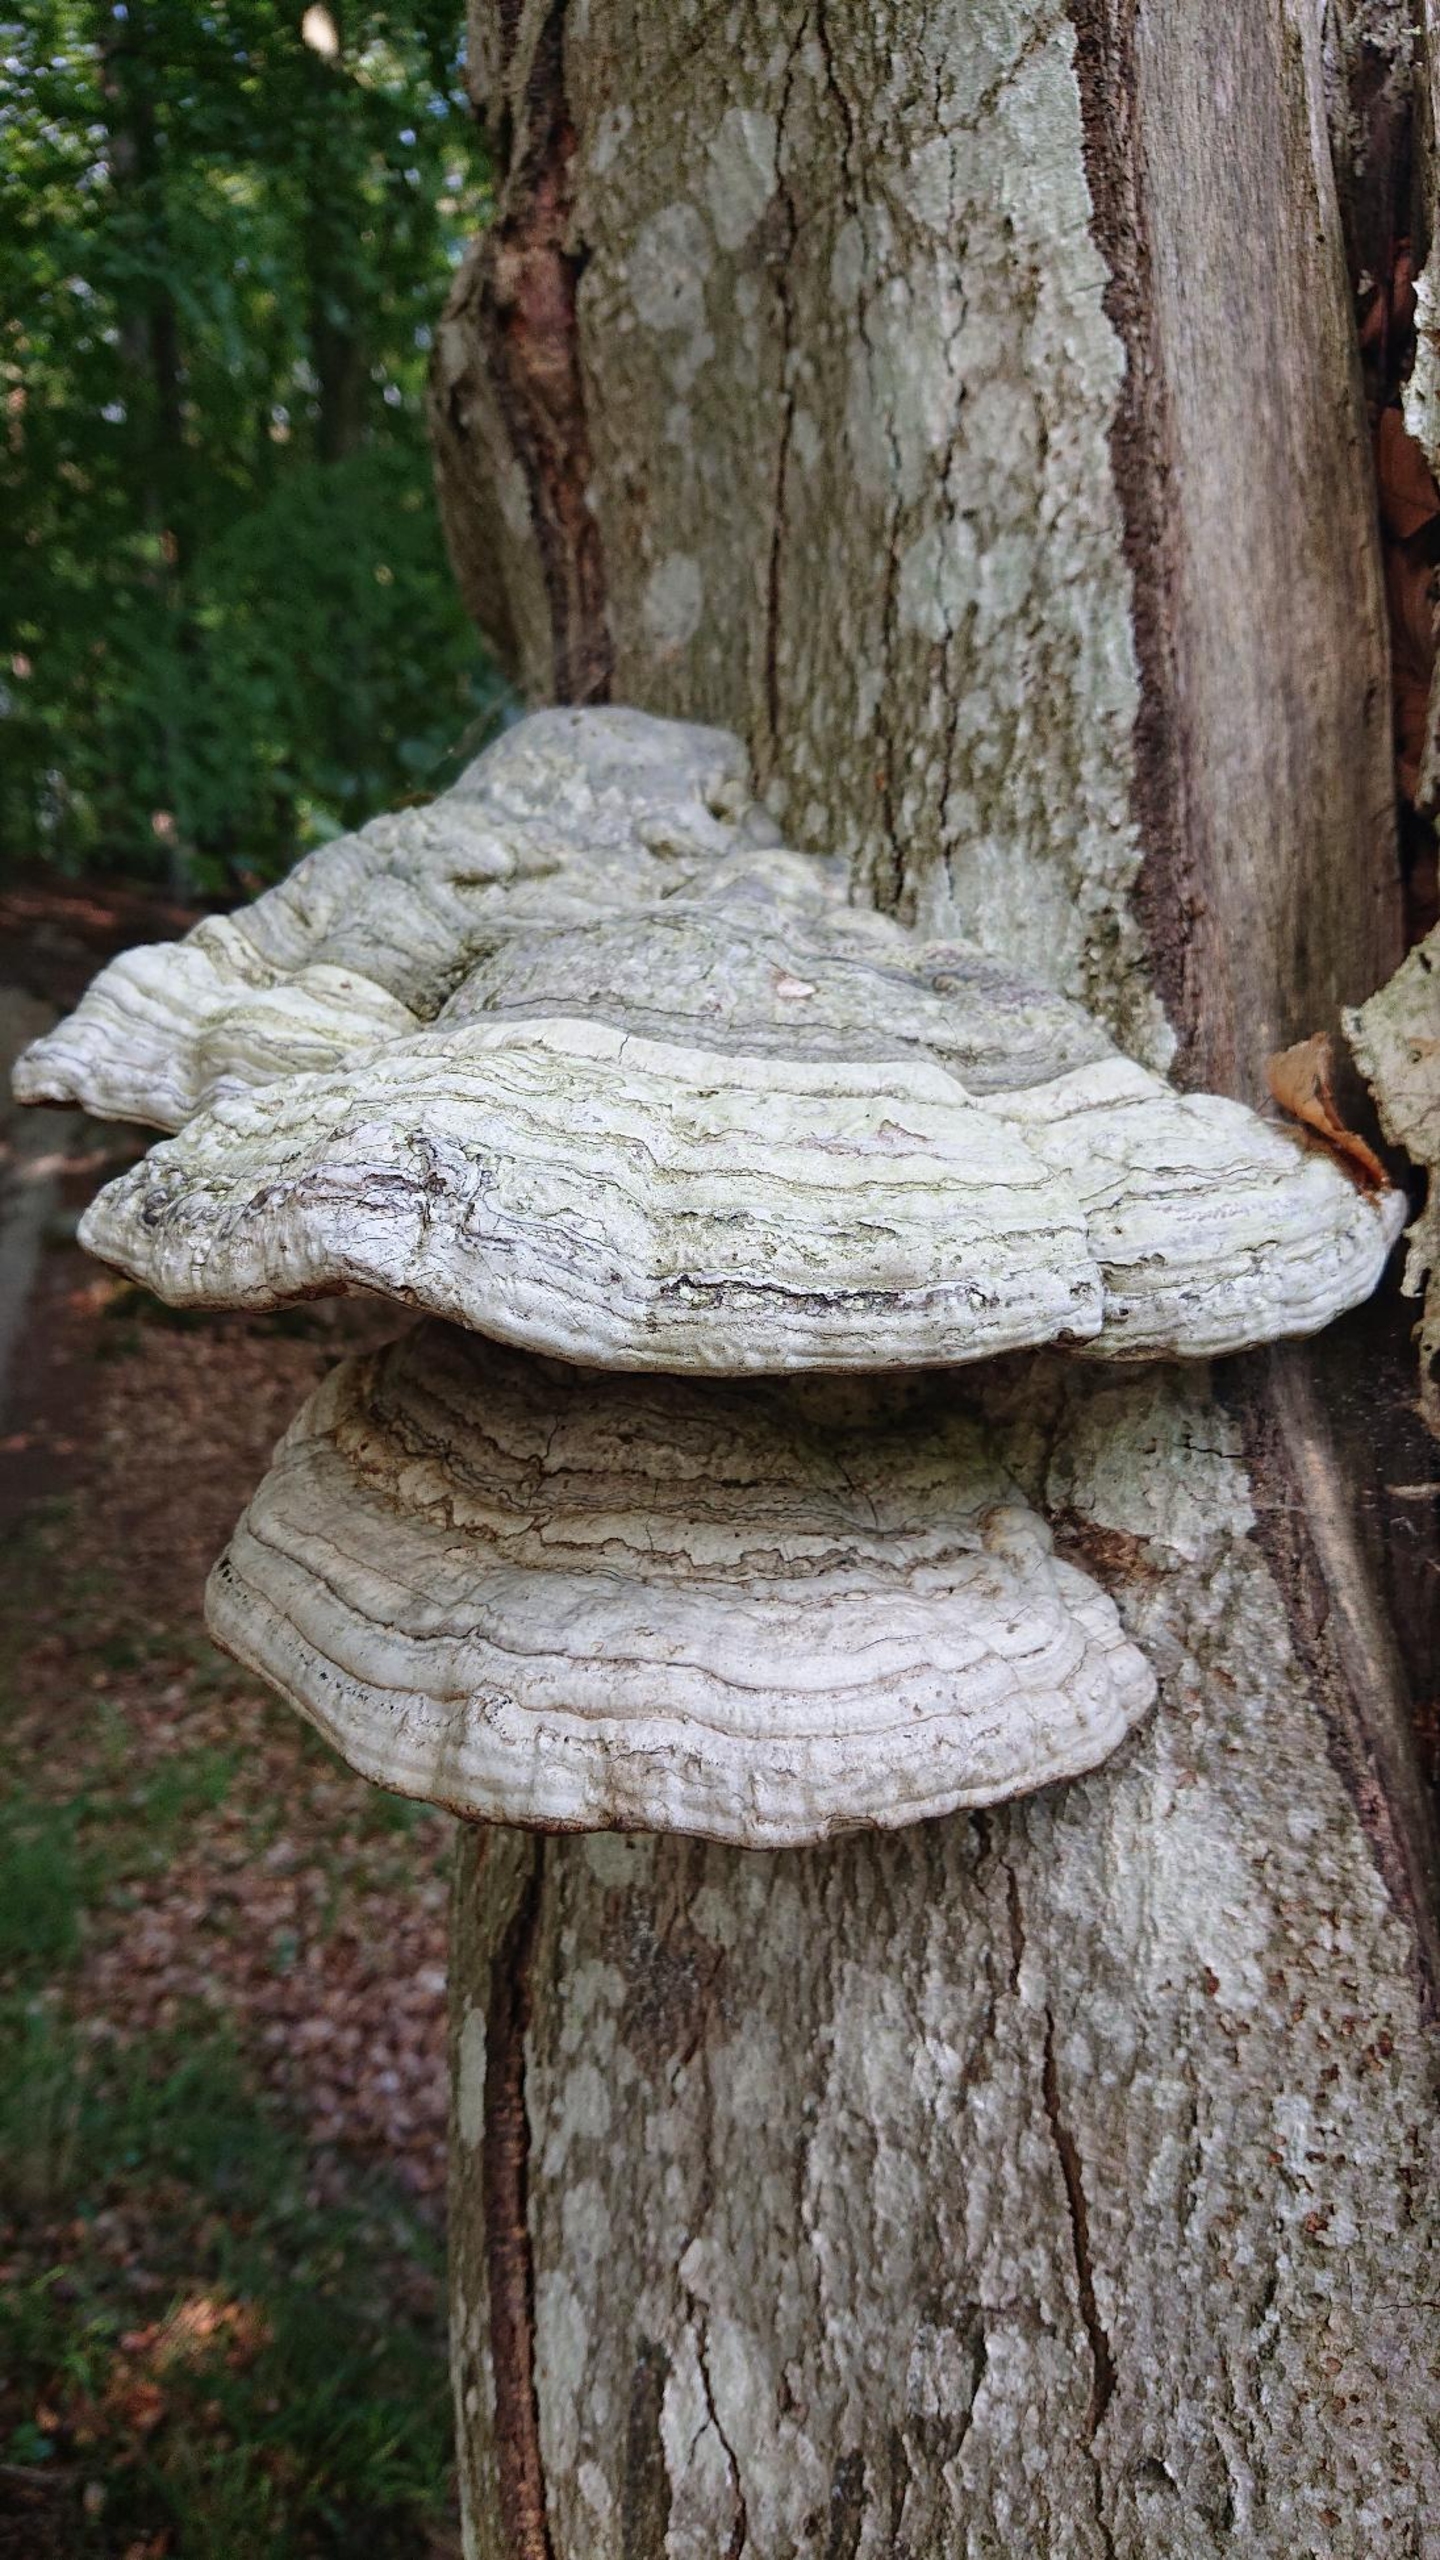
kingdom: Fungi
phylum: Basidiomycota
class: Agaricomycetes
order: Polyporales
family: Polyporaceae
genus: Fomes
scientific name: Fomes fomentarius
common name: Tøndersvamp
